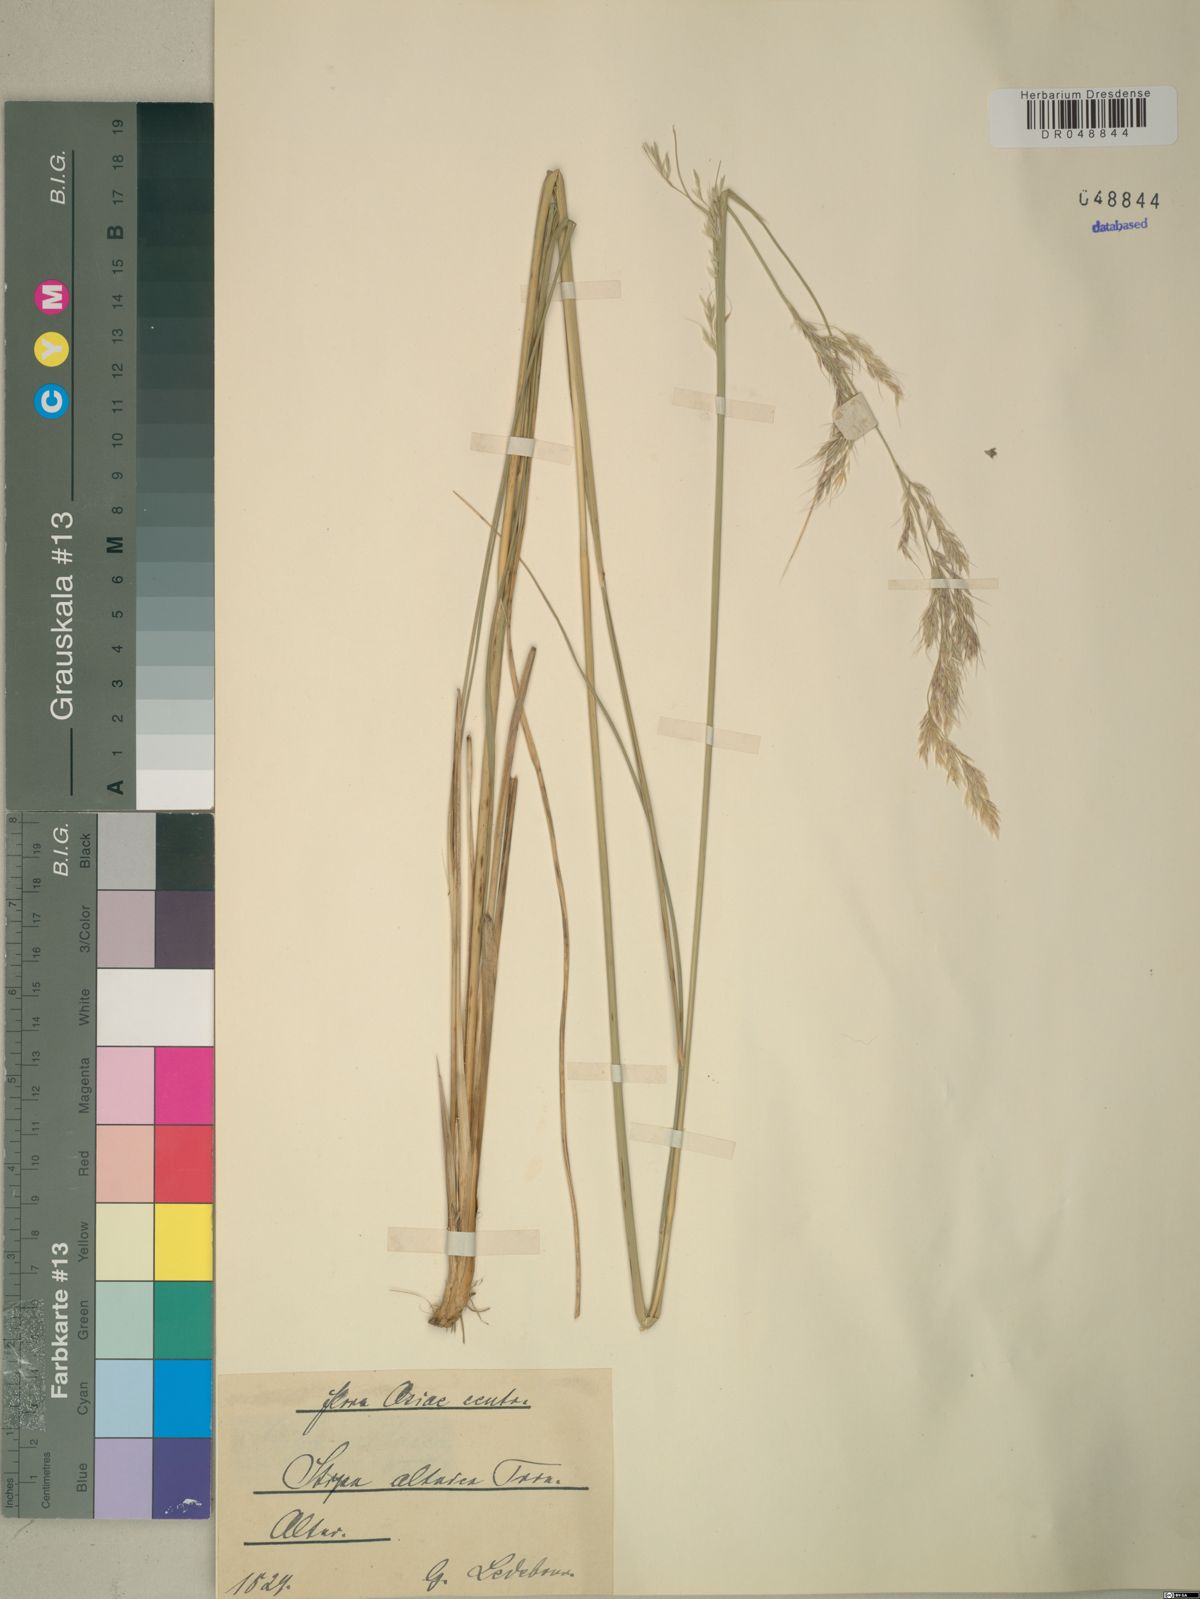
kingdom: Plantae
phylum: Tracheophyta
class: Liliopsida
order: Poales
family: Poaceae
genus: Neotrinia
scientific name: Neotrinia splendens
